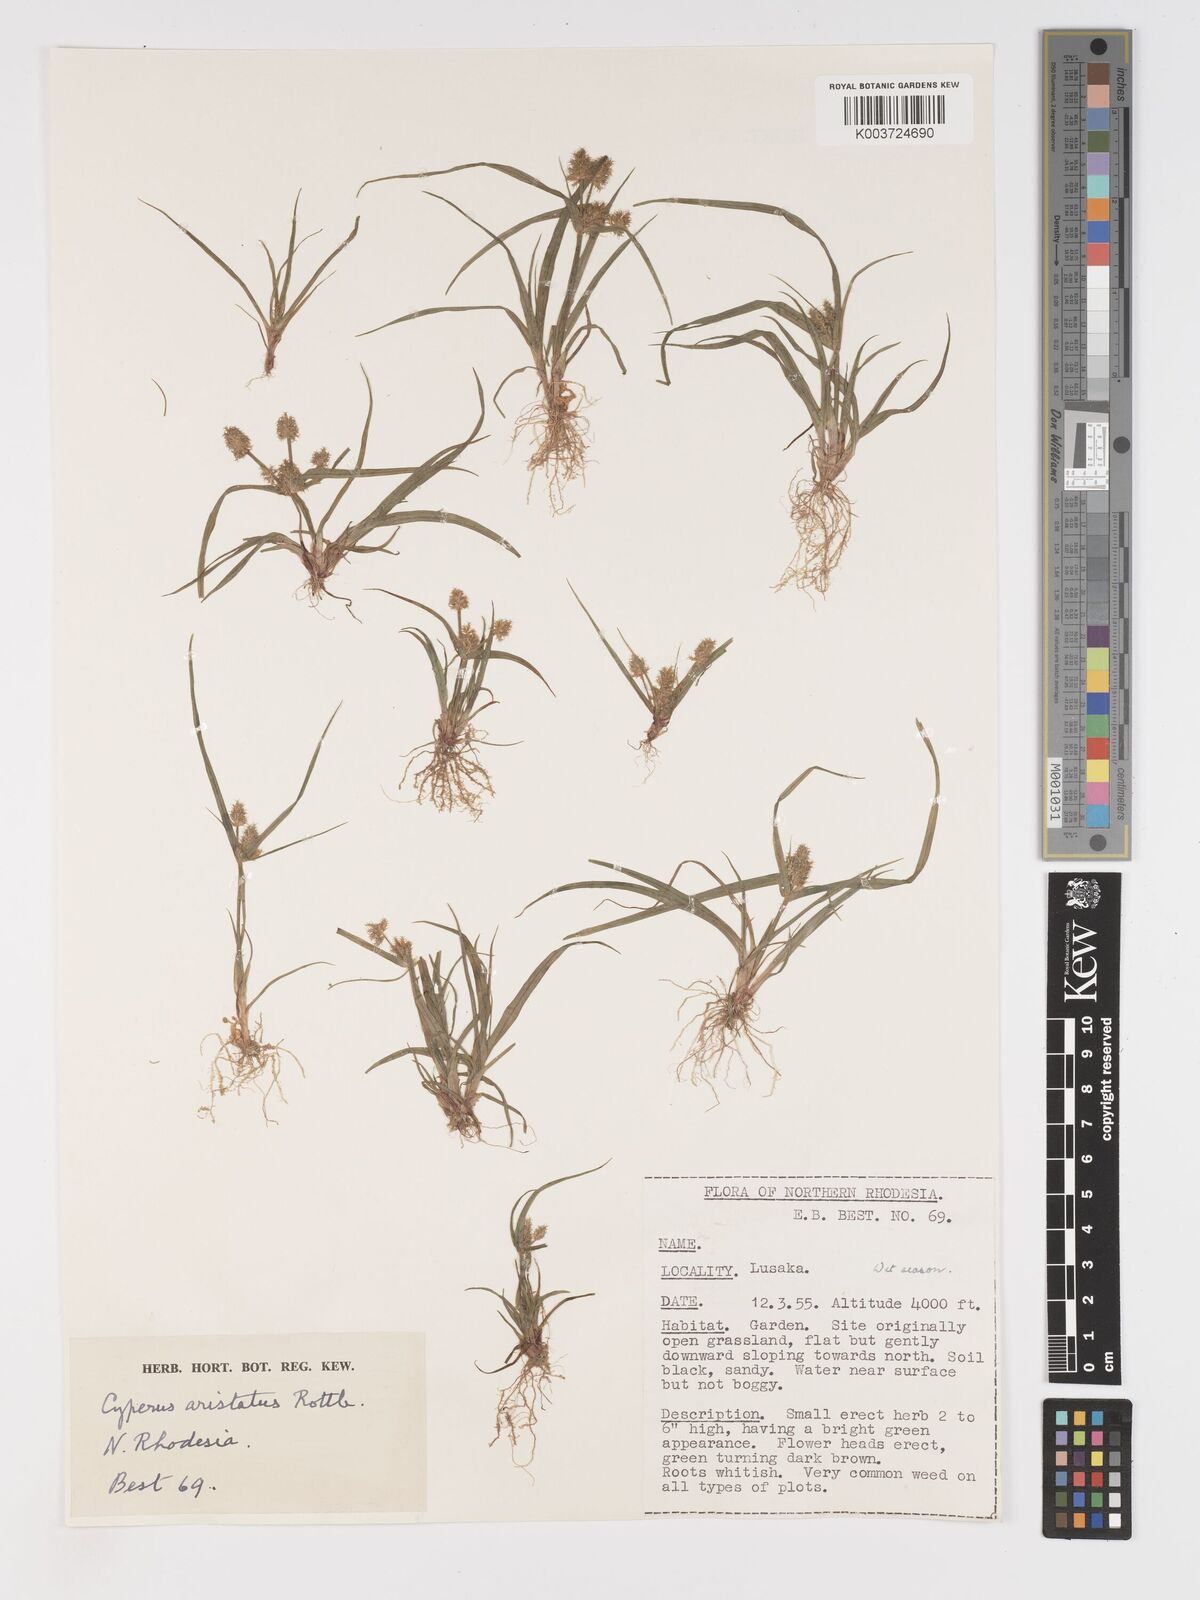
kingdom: Plantae
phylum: Tracheophyta
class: Liliopsida
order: Poales
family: Cyperaceae
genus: Cyperus
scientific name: Cyperus squarrosus
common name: Awned cyperus
